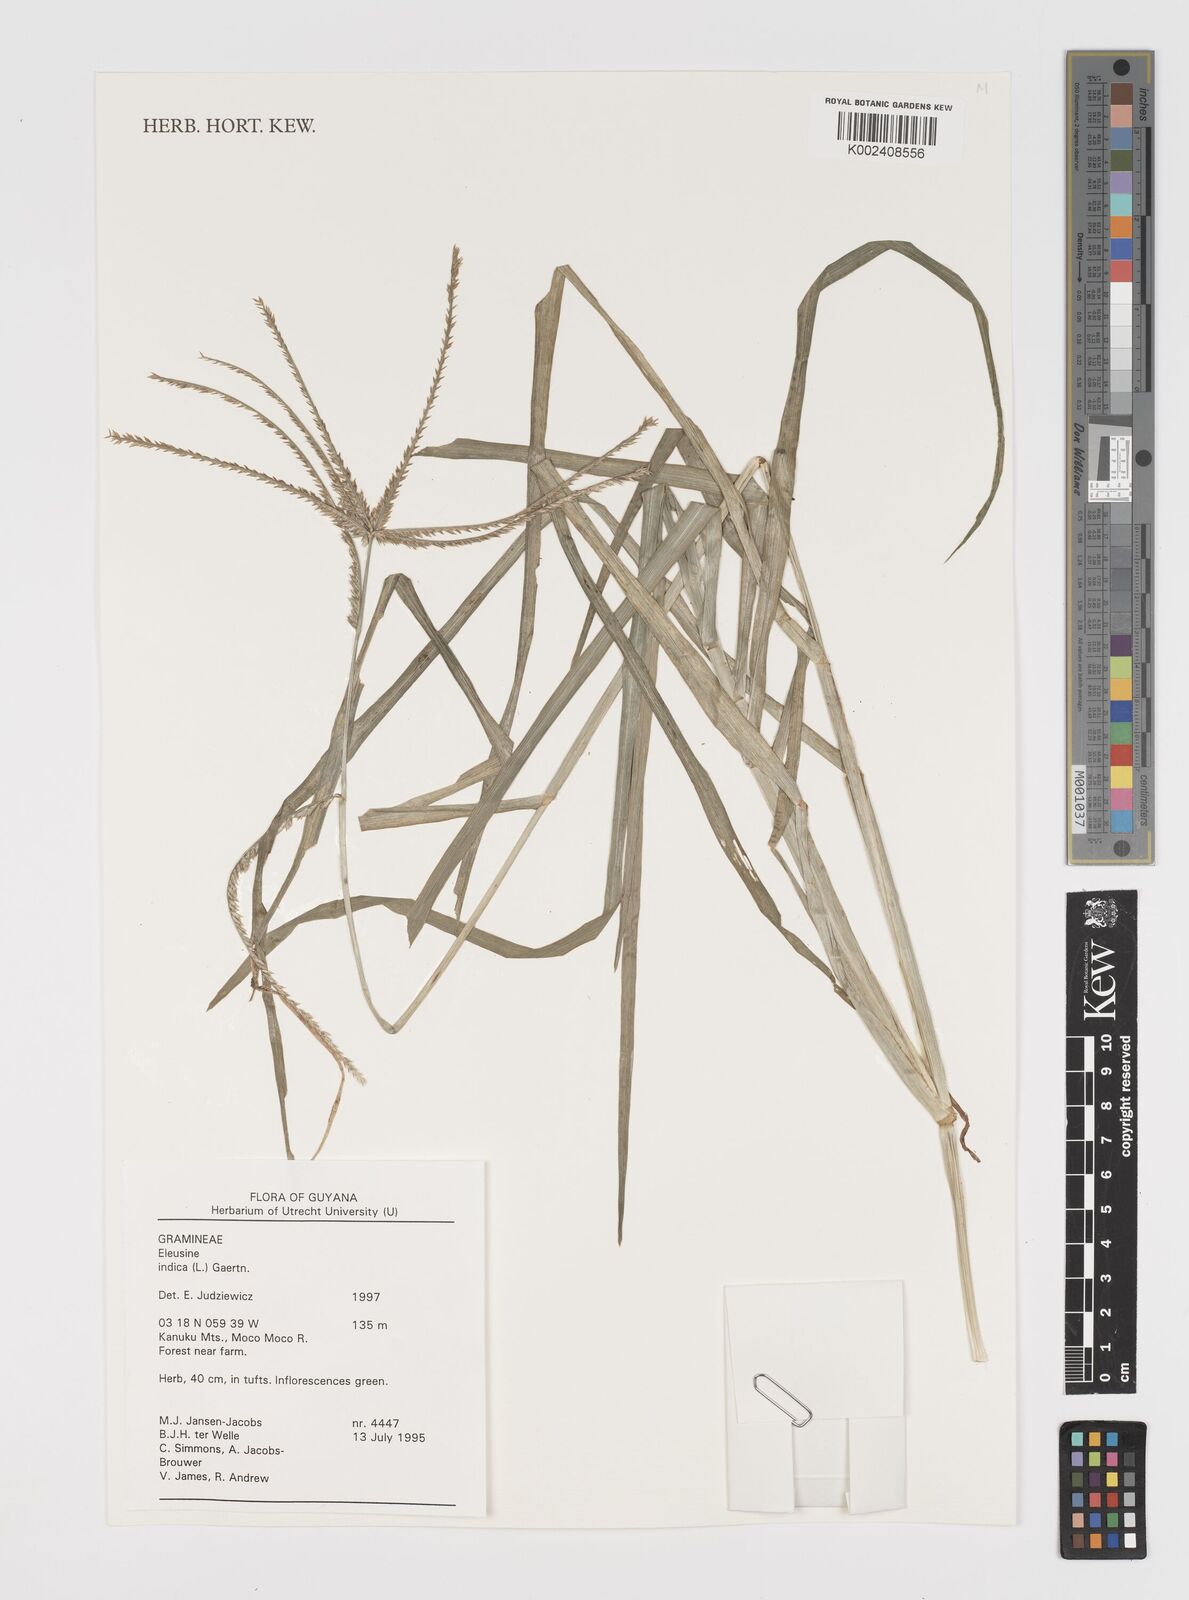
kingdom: Plantae
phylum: Tracheophyta
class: Liliopsida
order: Poales
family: Poaceae
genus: Eleusine
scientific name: Eleusine indica
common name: Yard-grass
